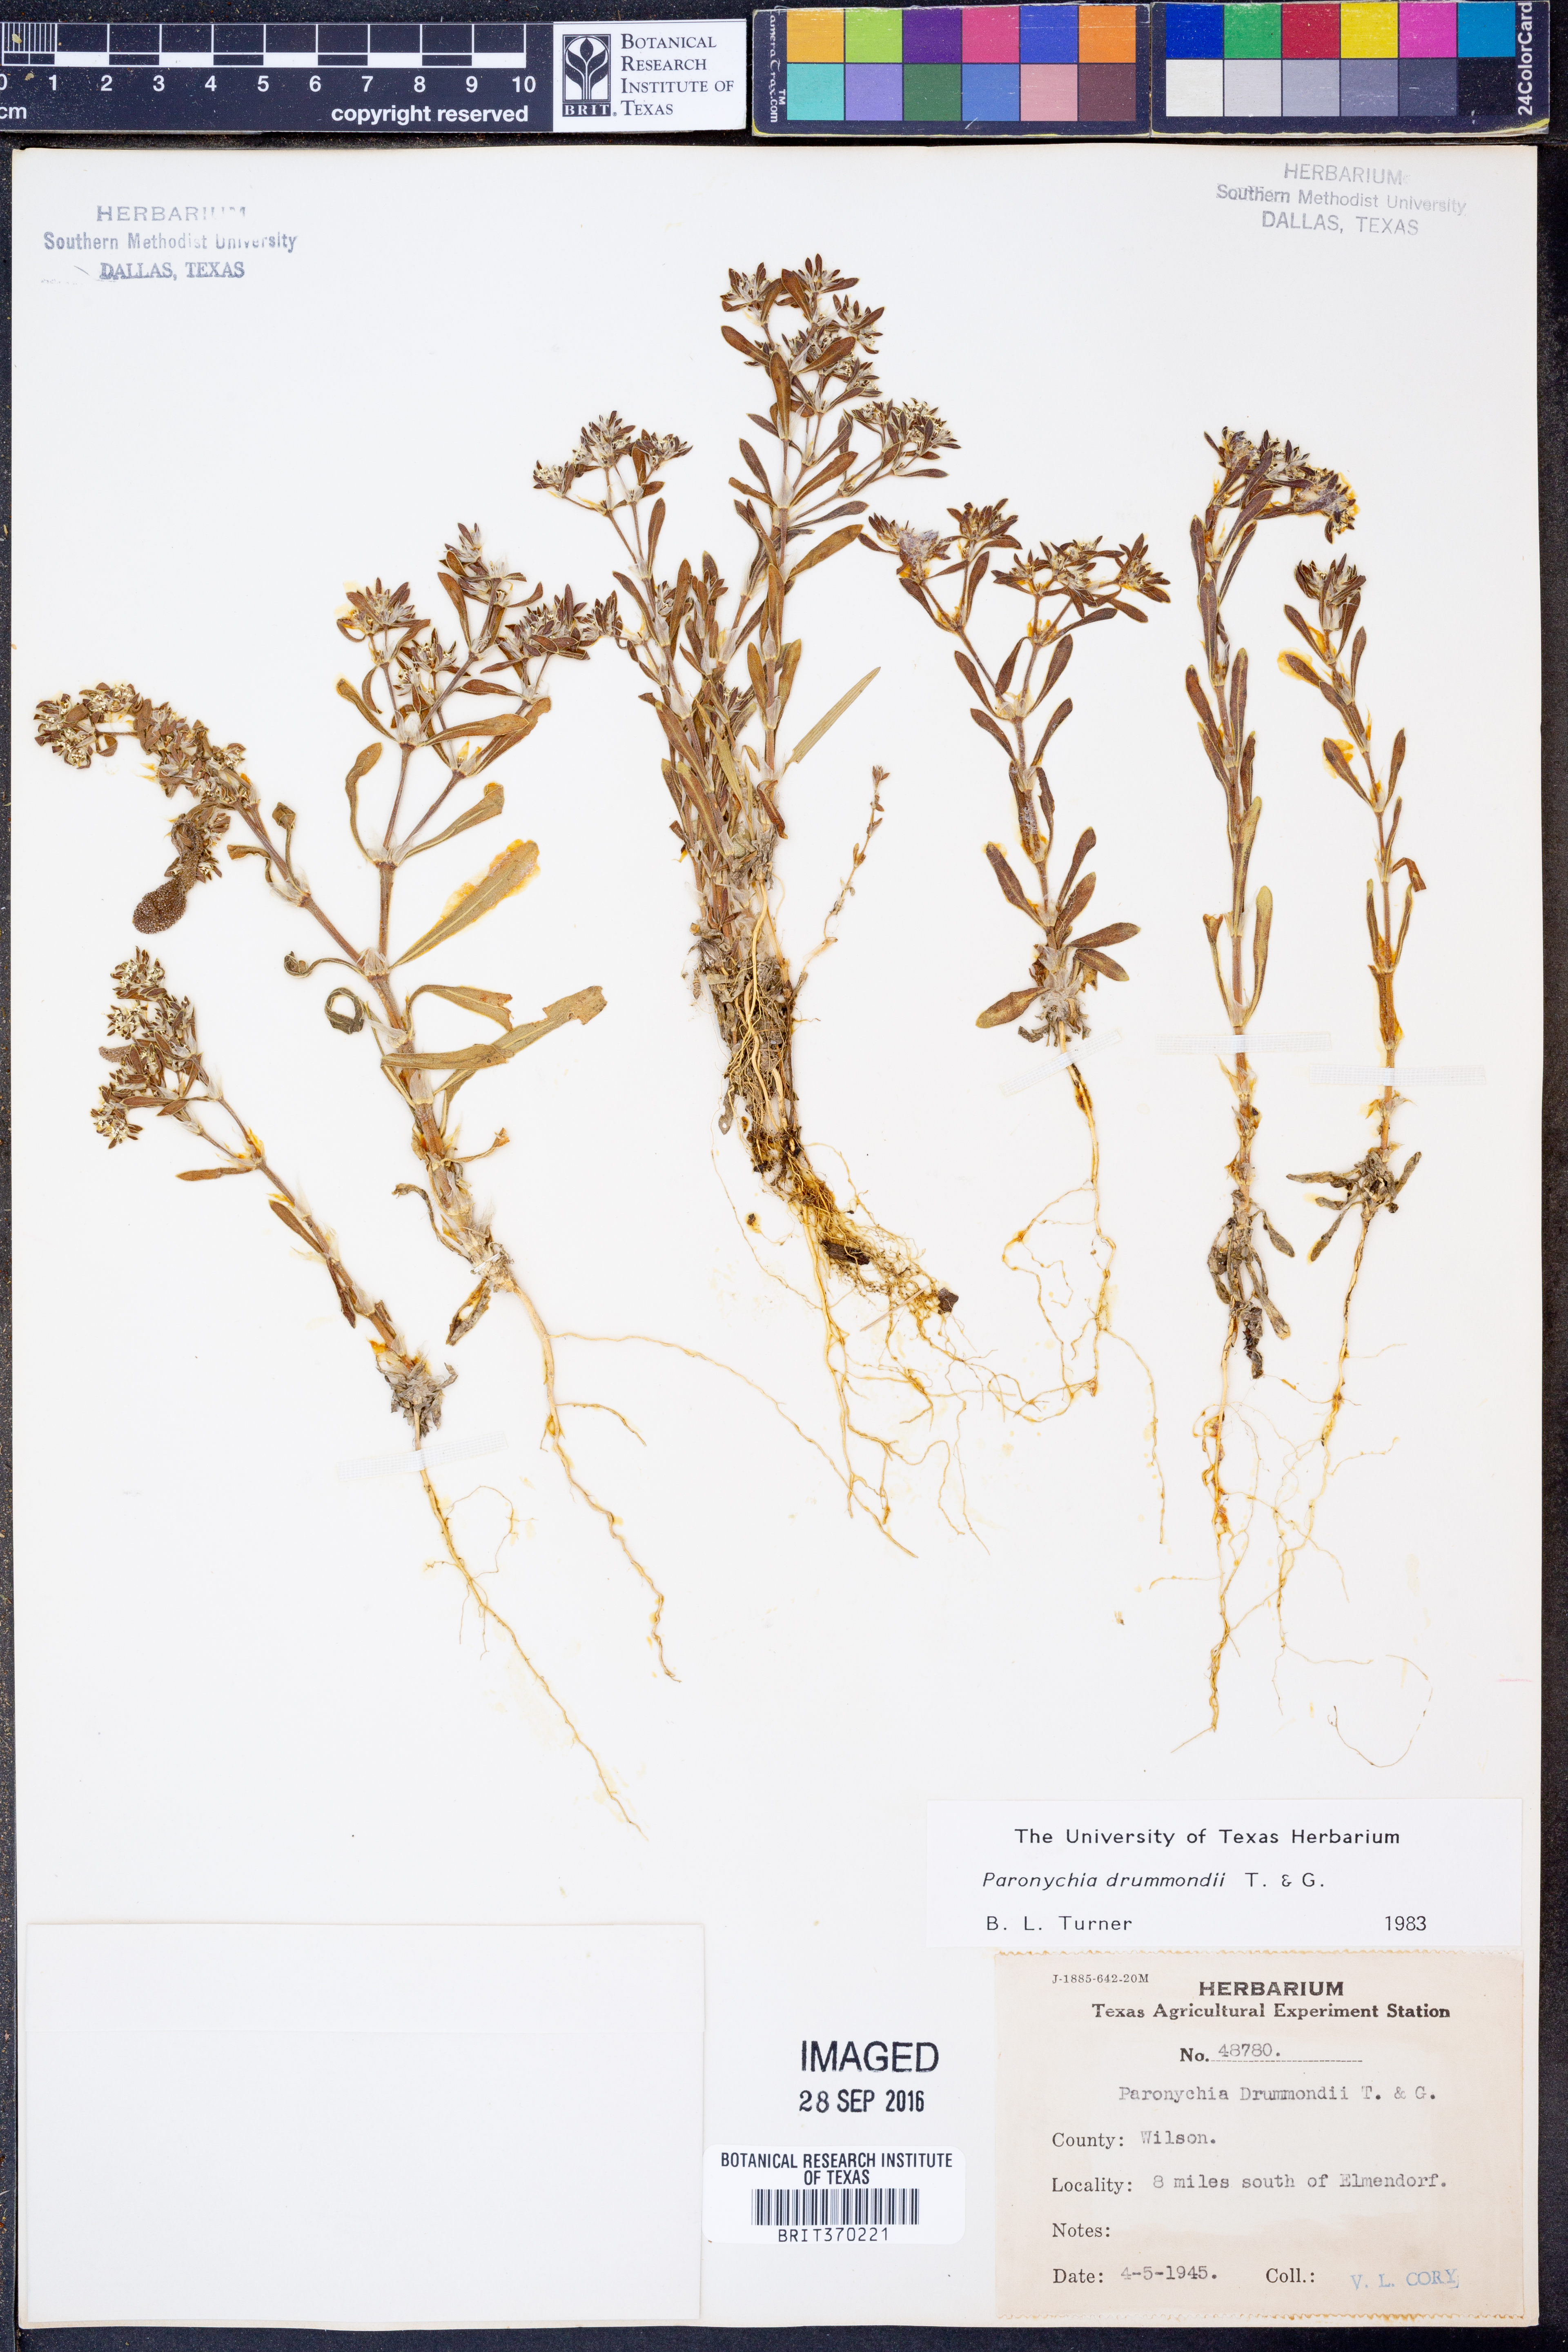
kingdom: Plantae
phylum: Tracheophyta
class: Magnoliopsida
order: Caryophyllales
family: Caryophyllaceae
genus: Paronychia
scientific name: Paronychia drummondii
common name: Drummond's nailwort
